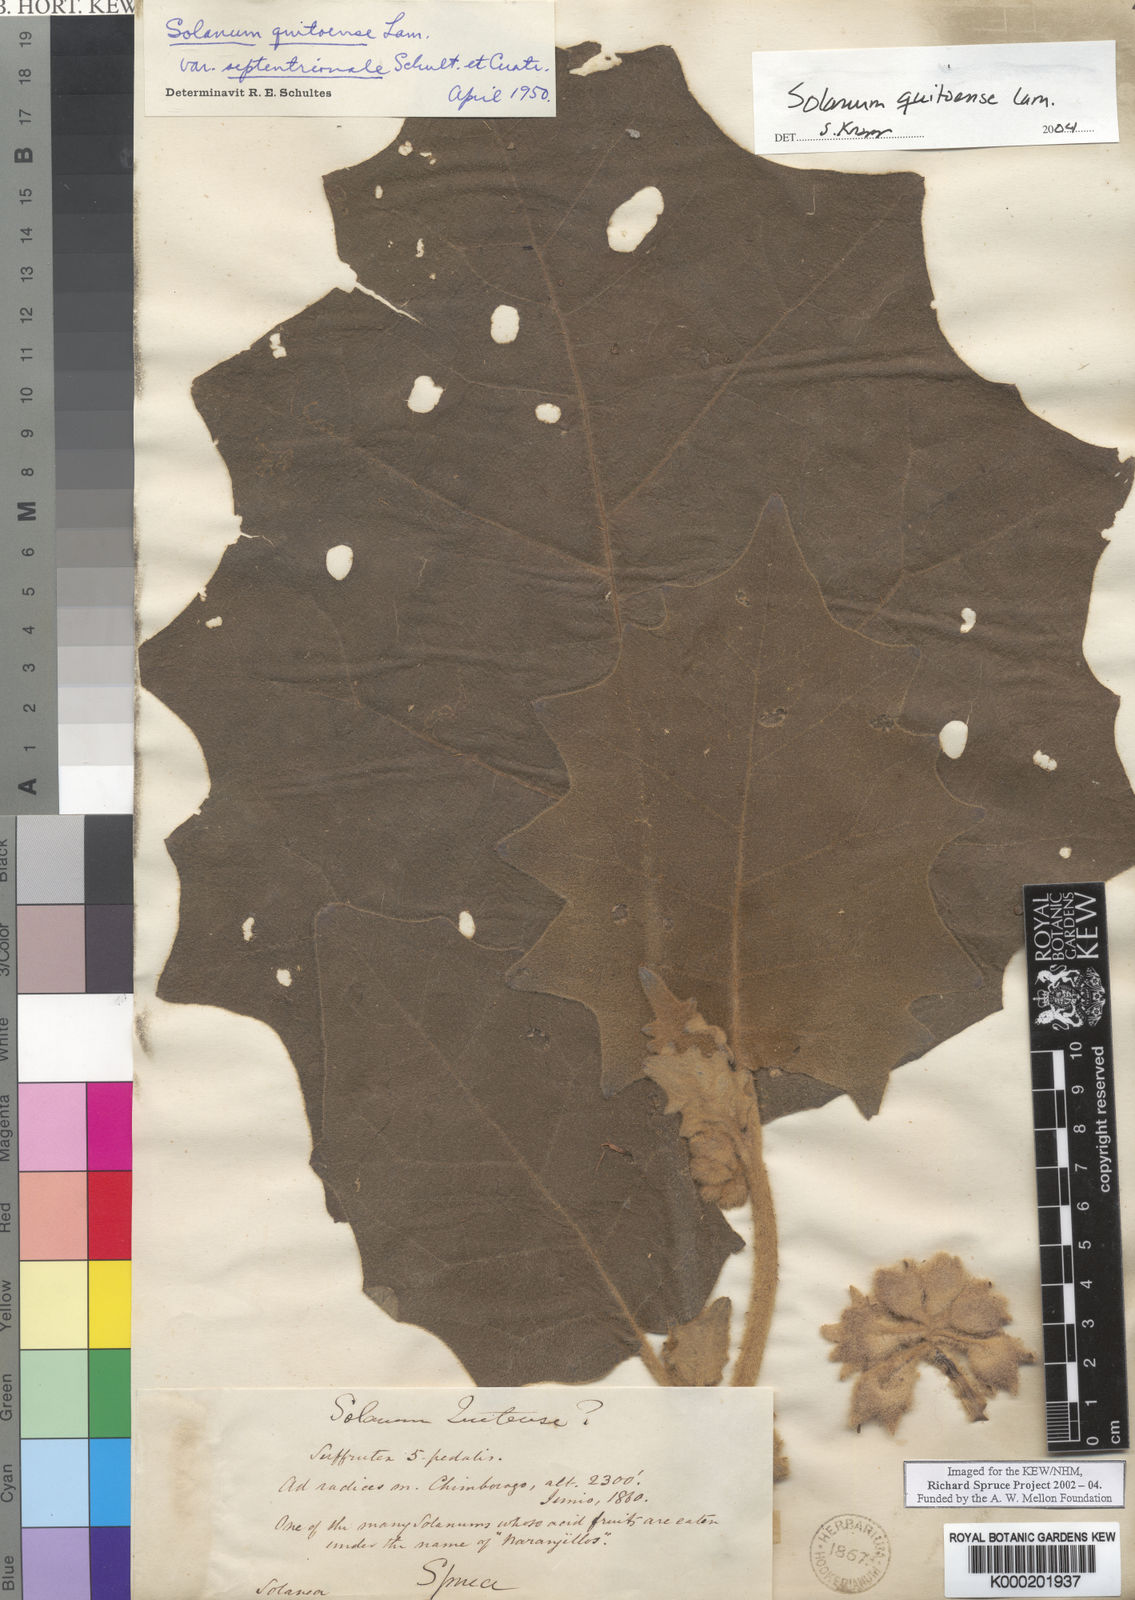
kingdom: Plantae
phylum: Tracheophyta
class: Magnoliopsida
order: Solanales
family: Solanaceae
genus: Solanum
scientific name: Solanum quitoense
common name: Quito-orange
